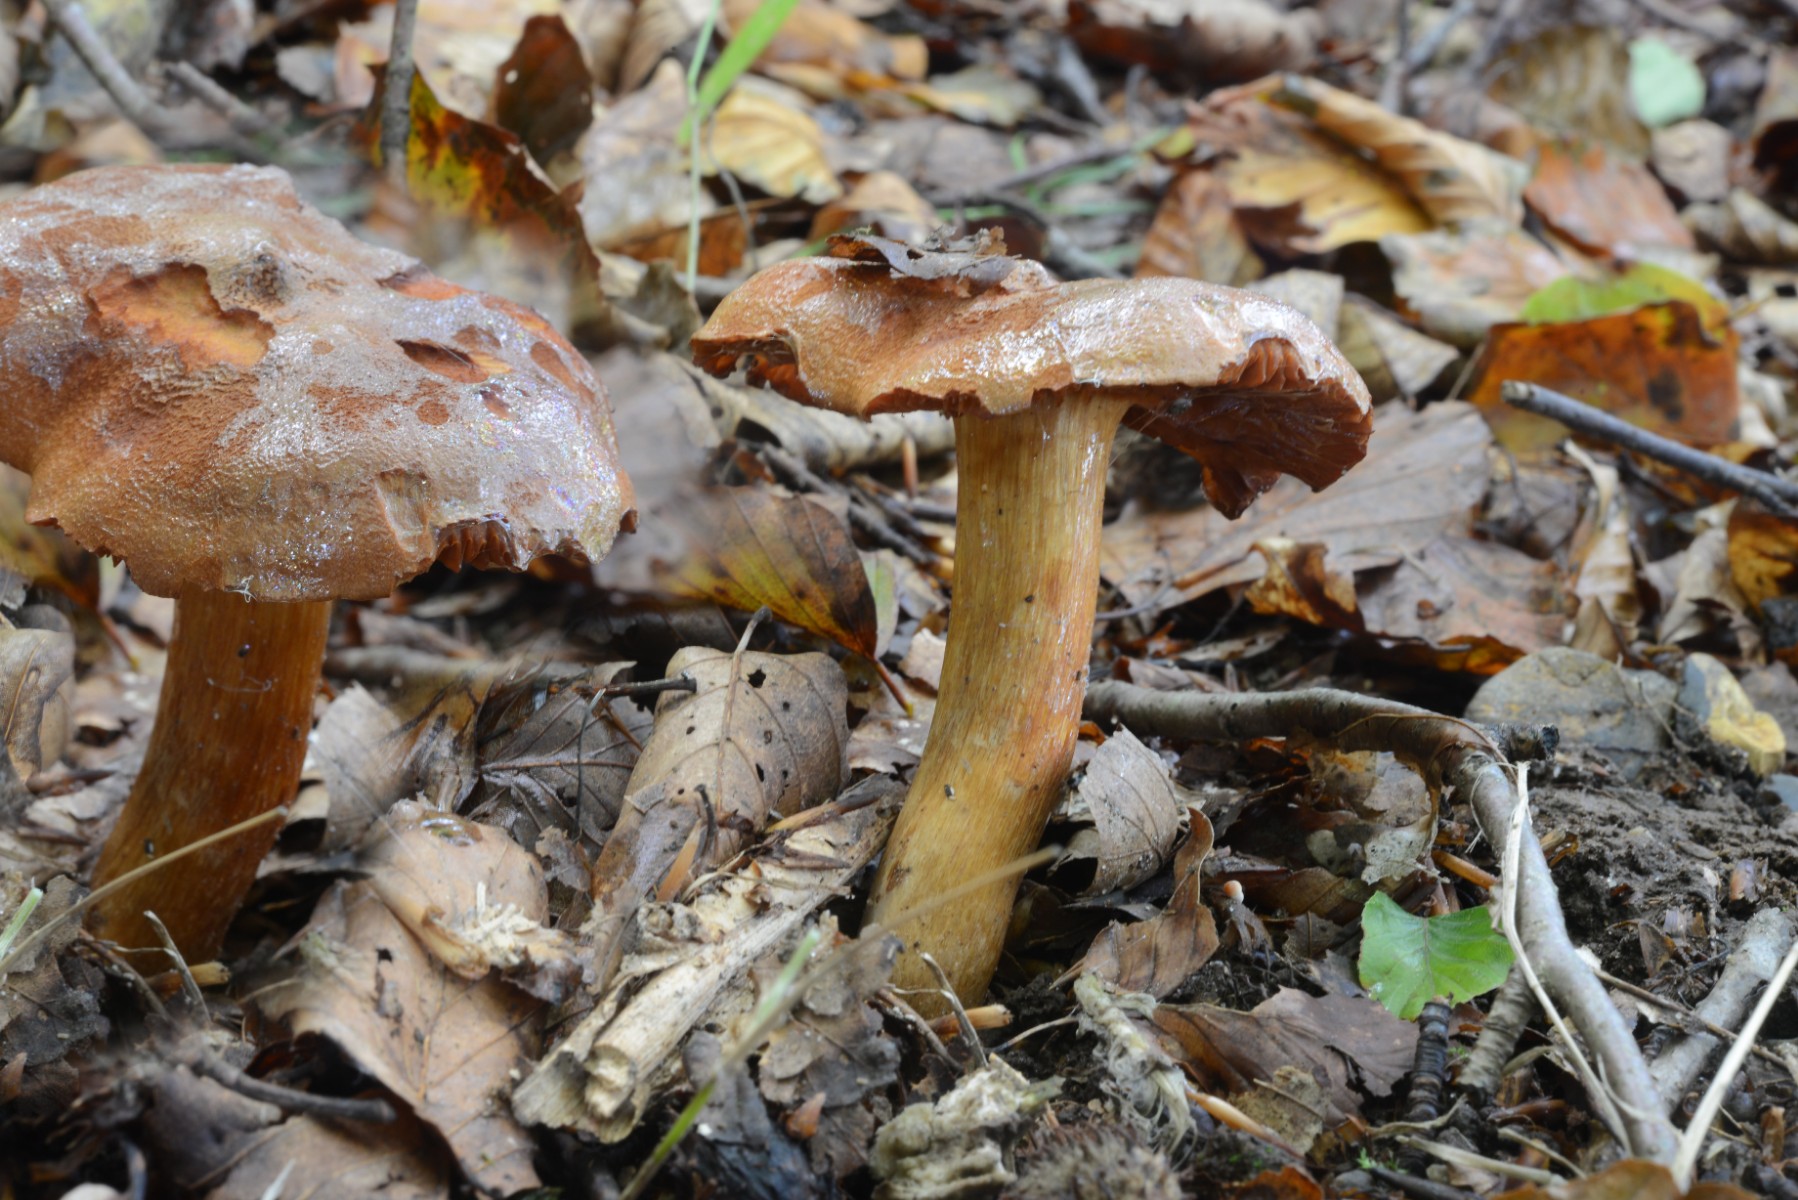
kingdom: Fungi
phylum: Basidiomycota
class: Agaricomycetes
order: Agaricales
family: Cortinariaceae
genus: Cortinarius
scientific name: Cortinarius orellanus
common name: hvælvet gift-slørhat
